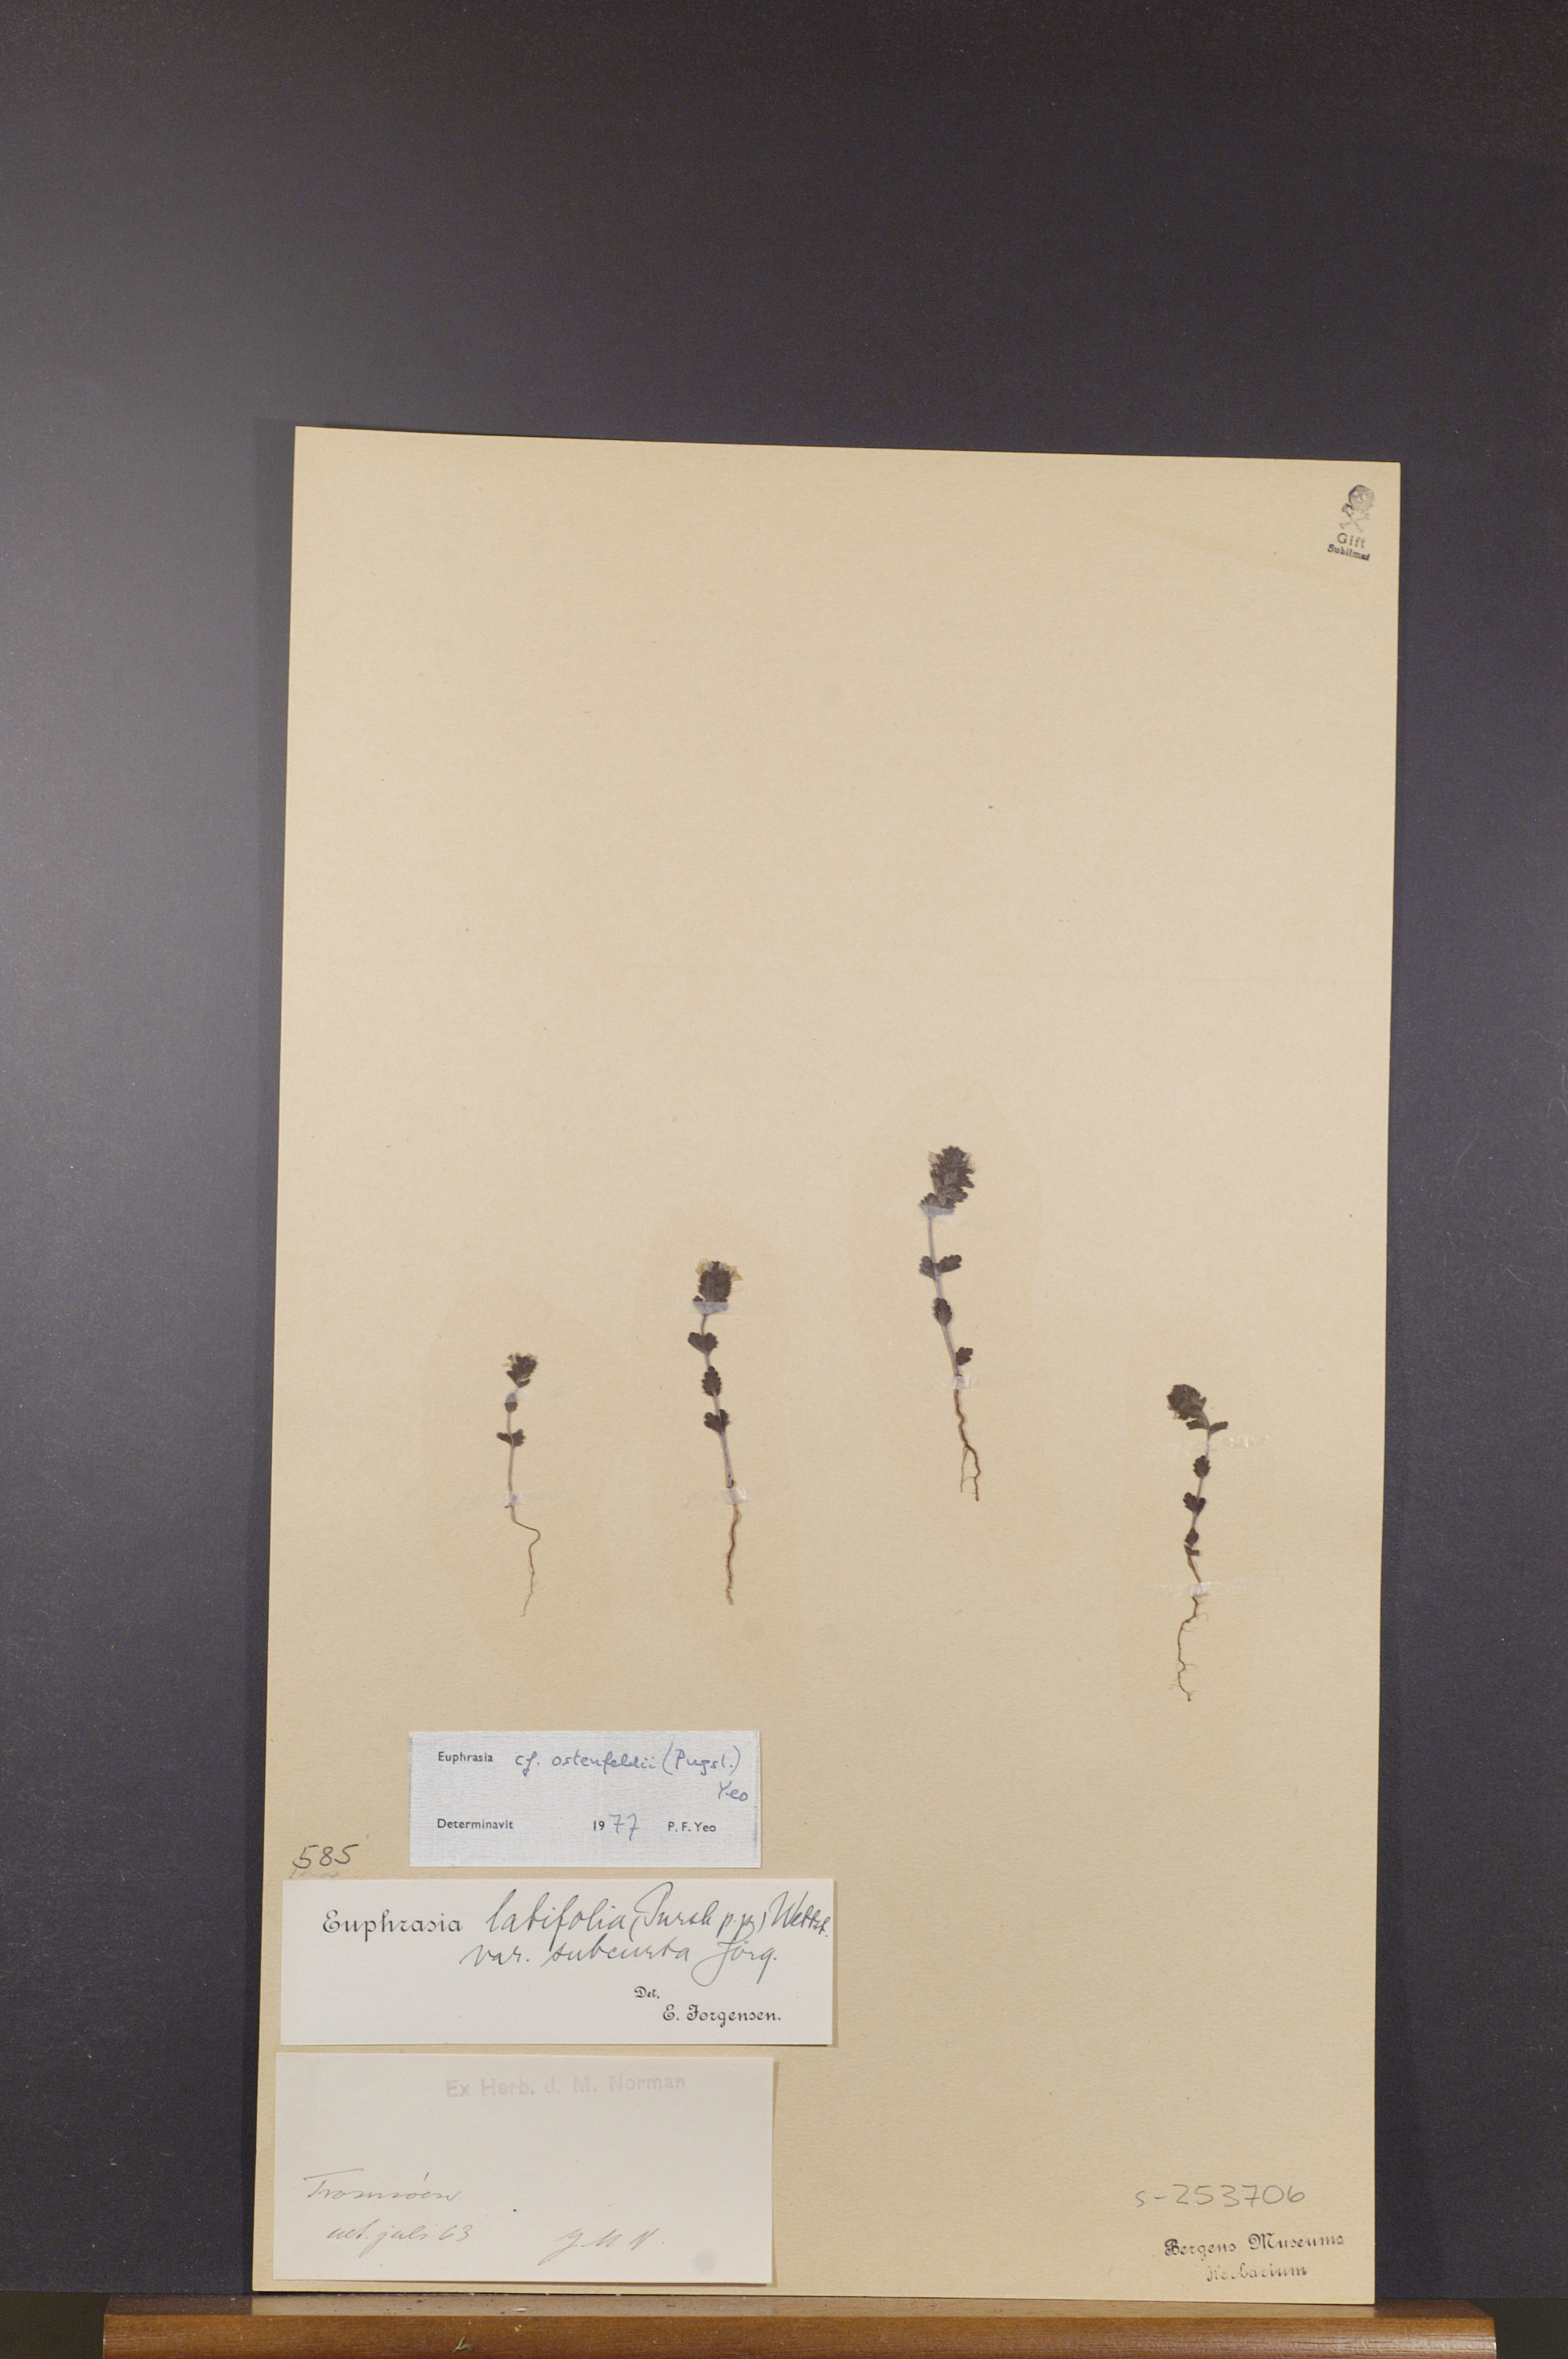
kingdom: Plantae
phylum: Tracheophyta
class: Magnoliopsida
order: Lamiales
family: Orobanchaceae
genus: Euphrasia
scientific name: Euphrasia ostenfeldii
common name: An eyebright
